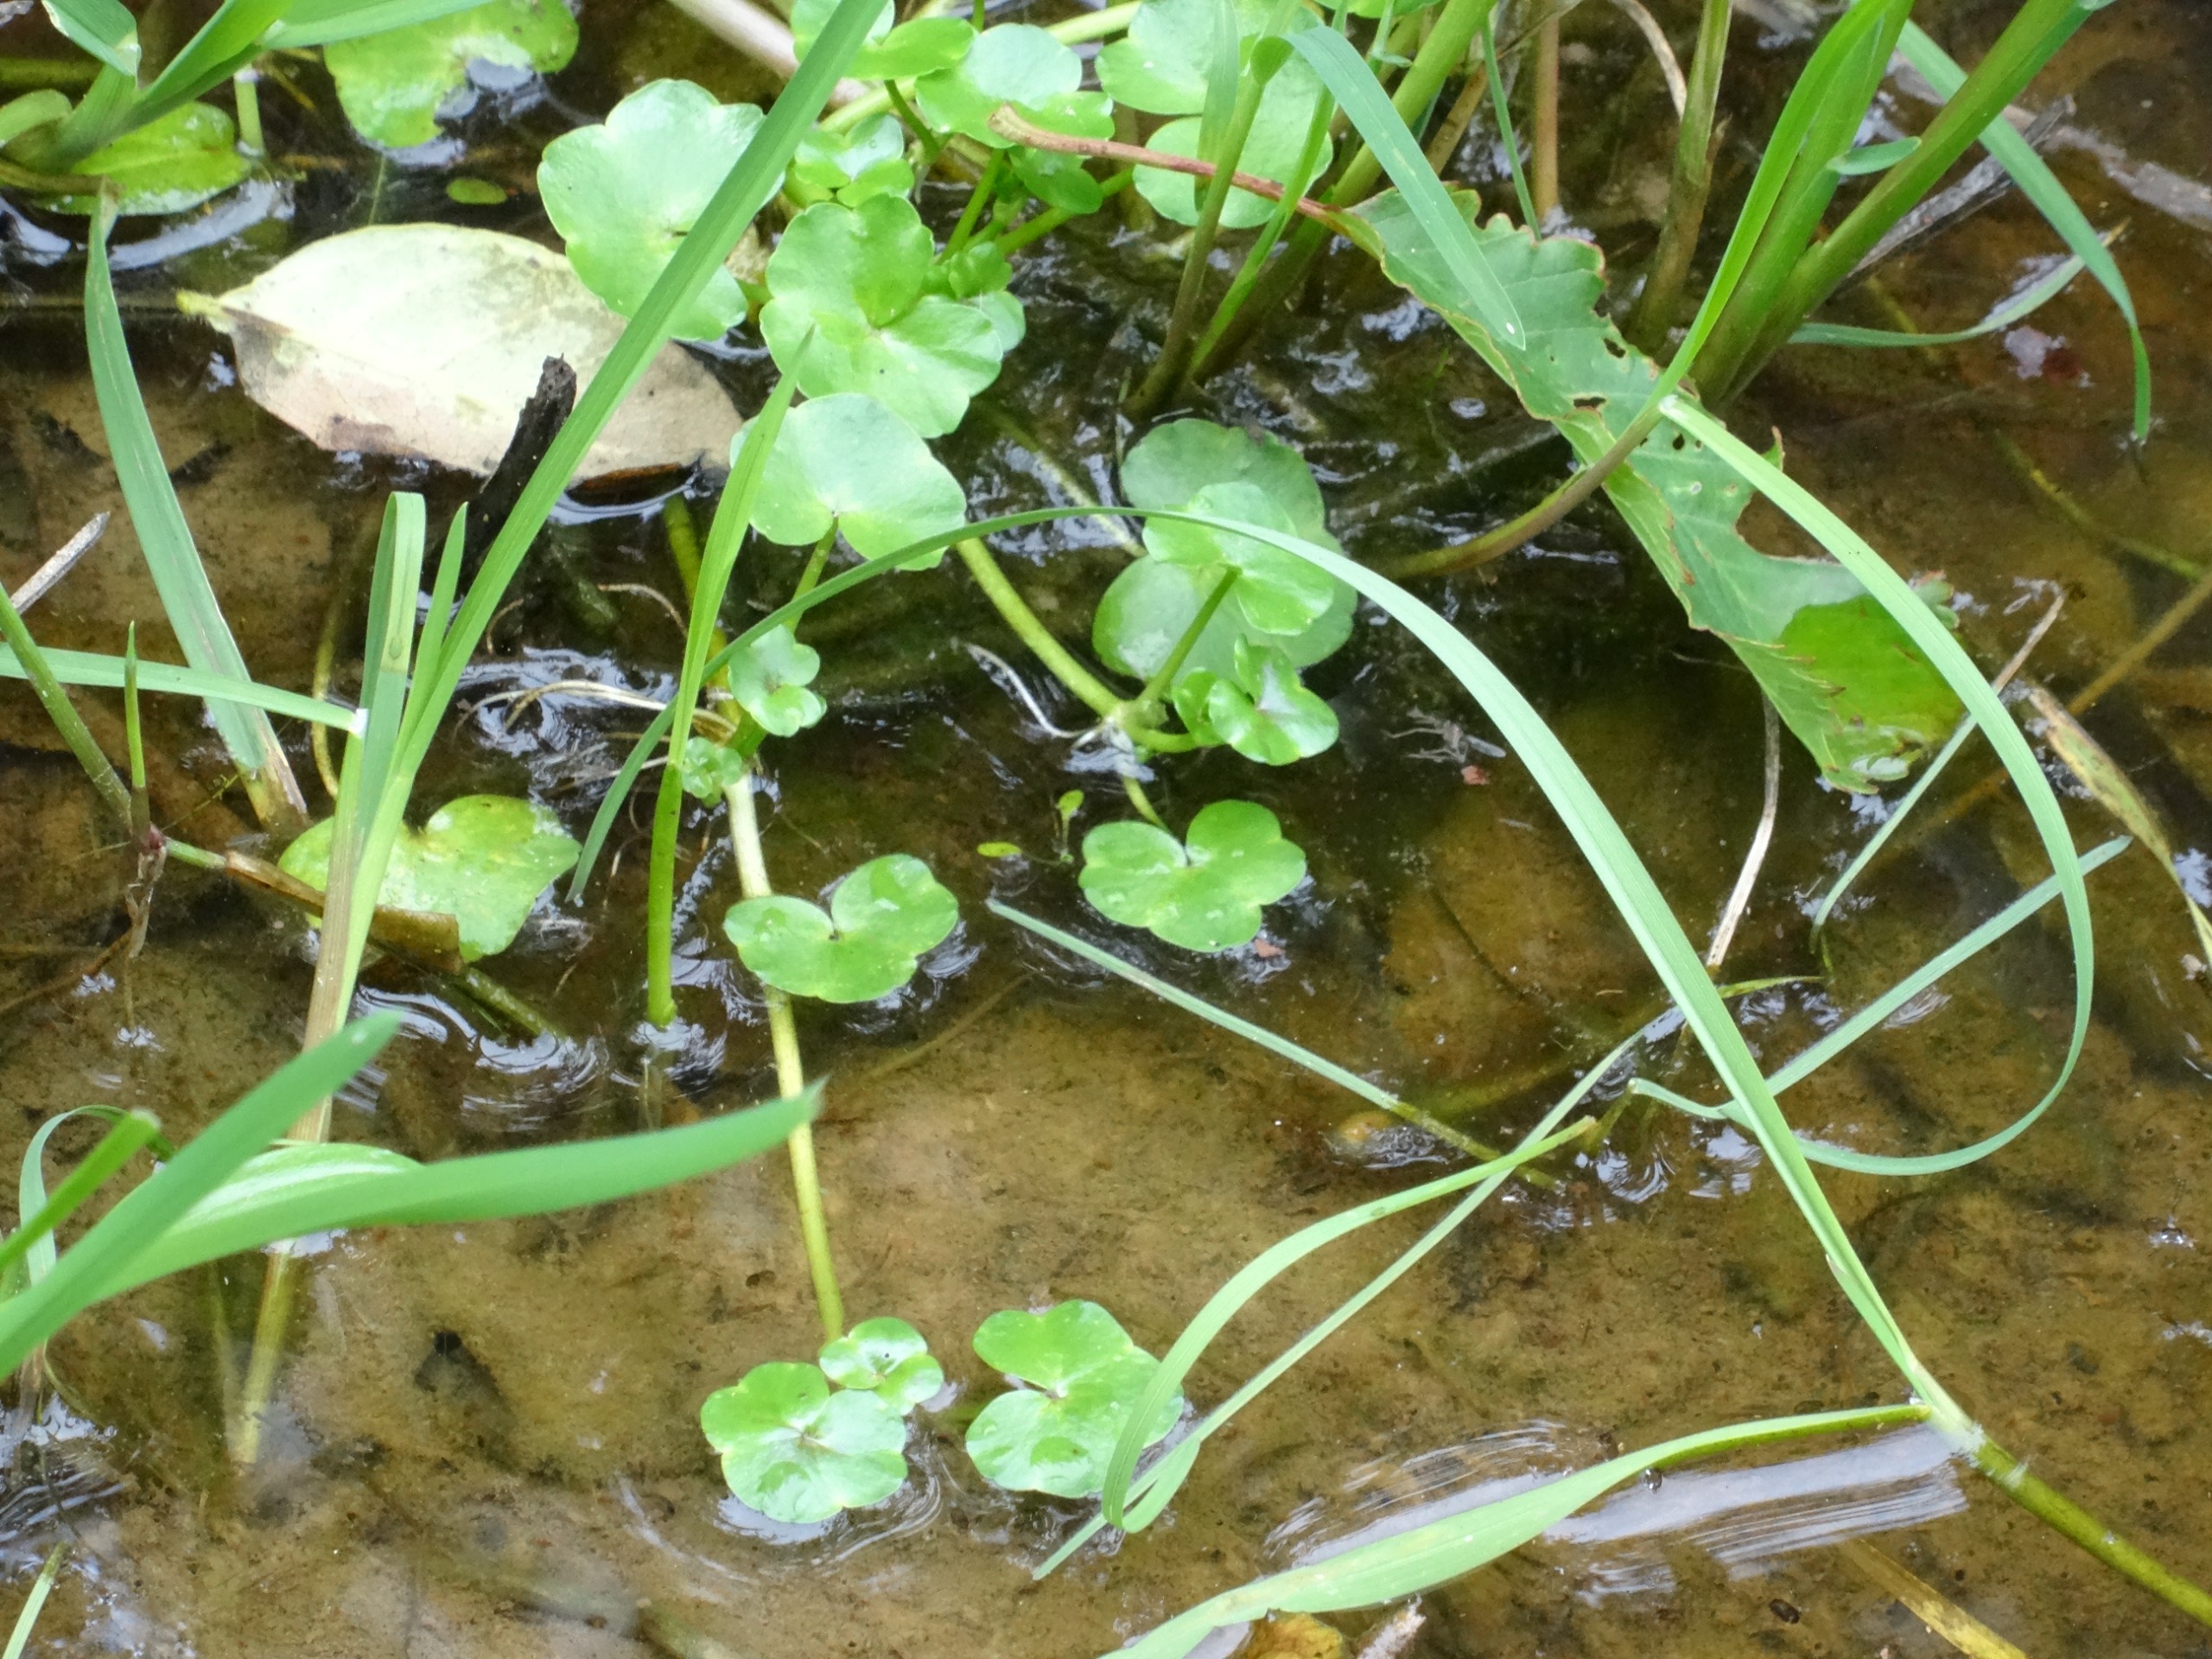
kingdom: Plantae
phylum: Tracheophyta
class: Magnoliopsida
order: Ranunculales
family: Ranunculaceae
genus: Ranunculus
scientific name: Ranunculus hederaceus
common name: Vedbend-vandranunkel
